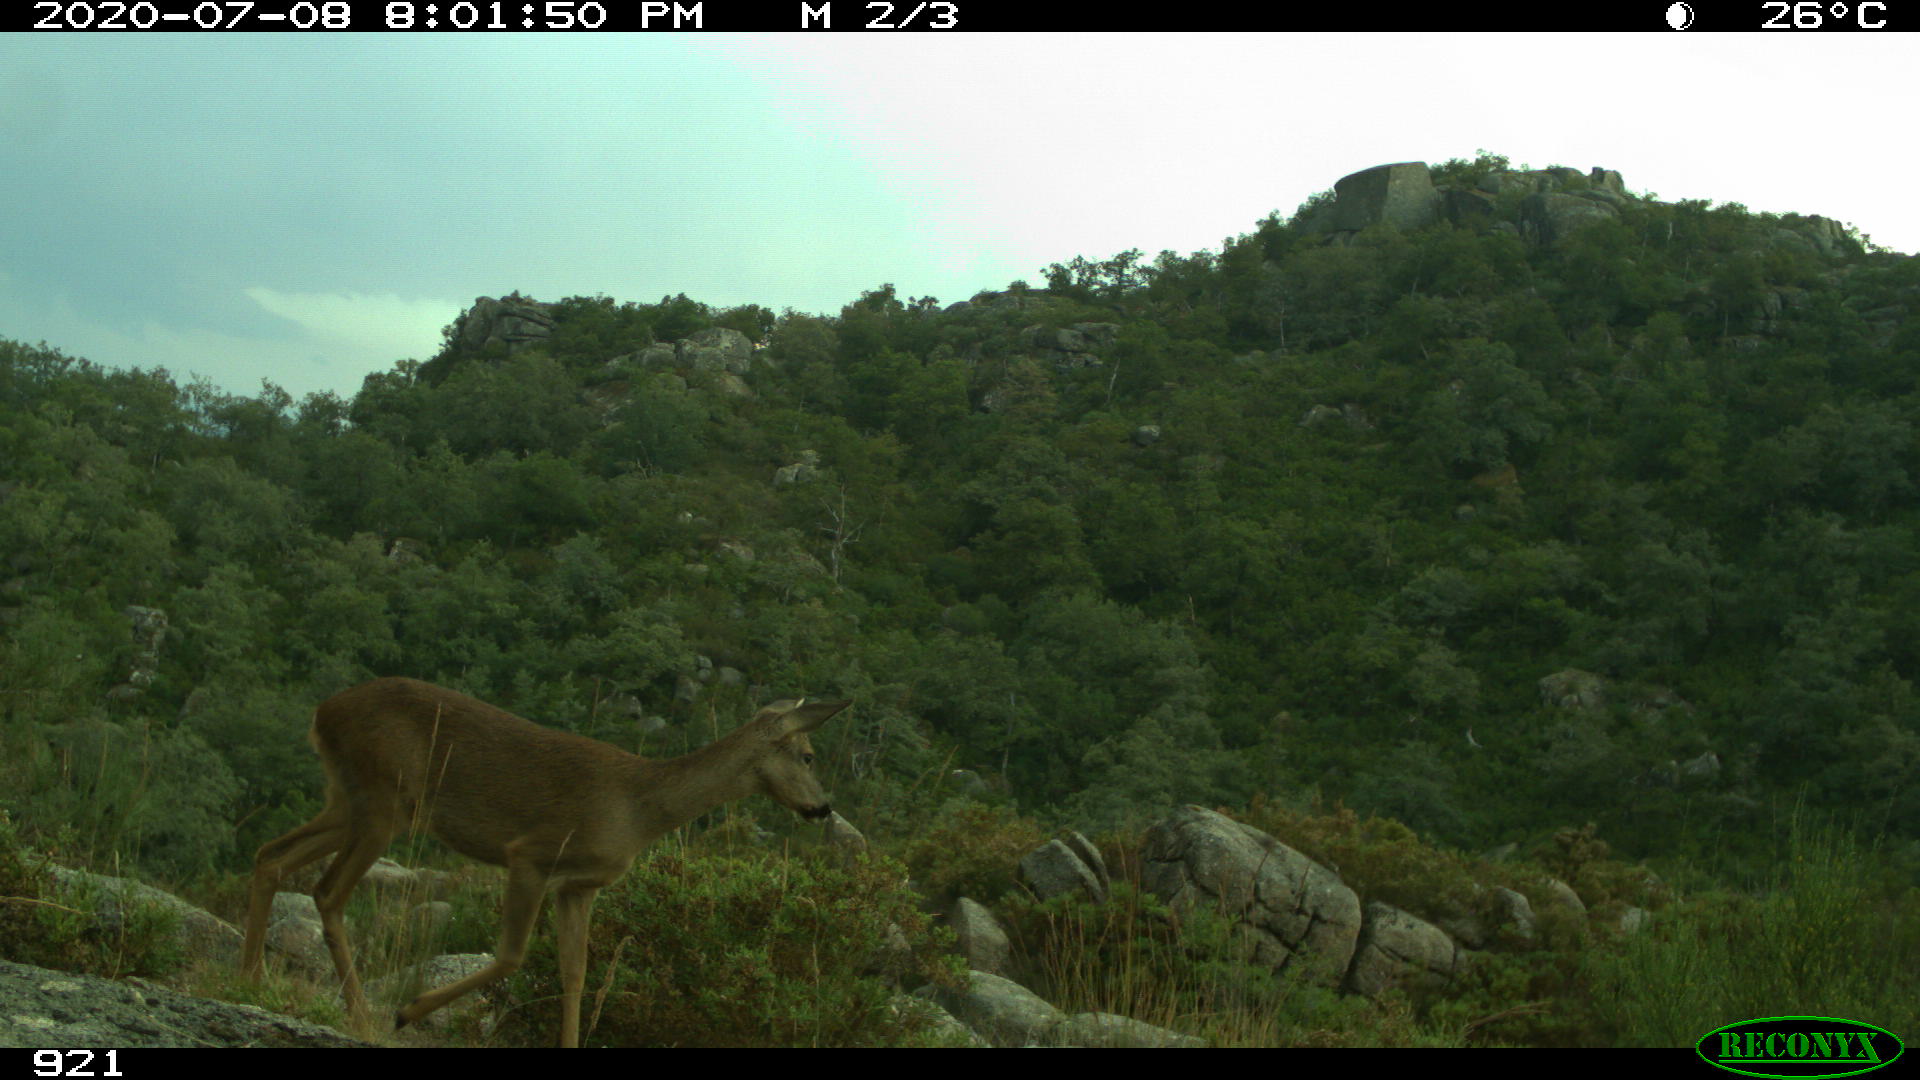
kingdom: Animalia
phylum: Chordata
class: Mammalia
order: Artiodactyla
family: Cervidae
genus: Capreolus
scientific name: Capreolus capreolus
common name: Western roe deer
